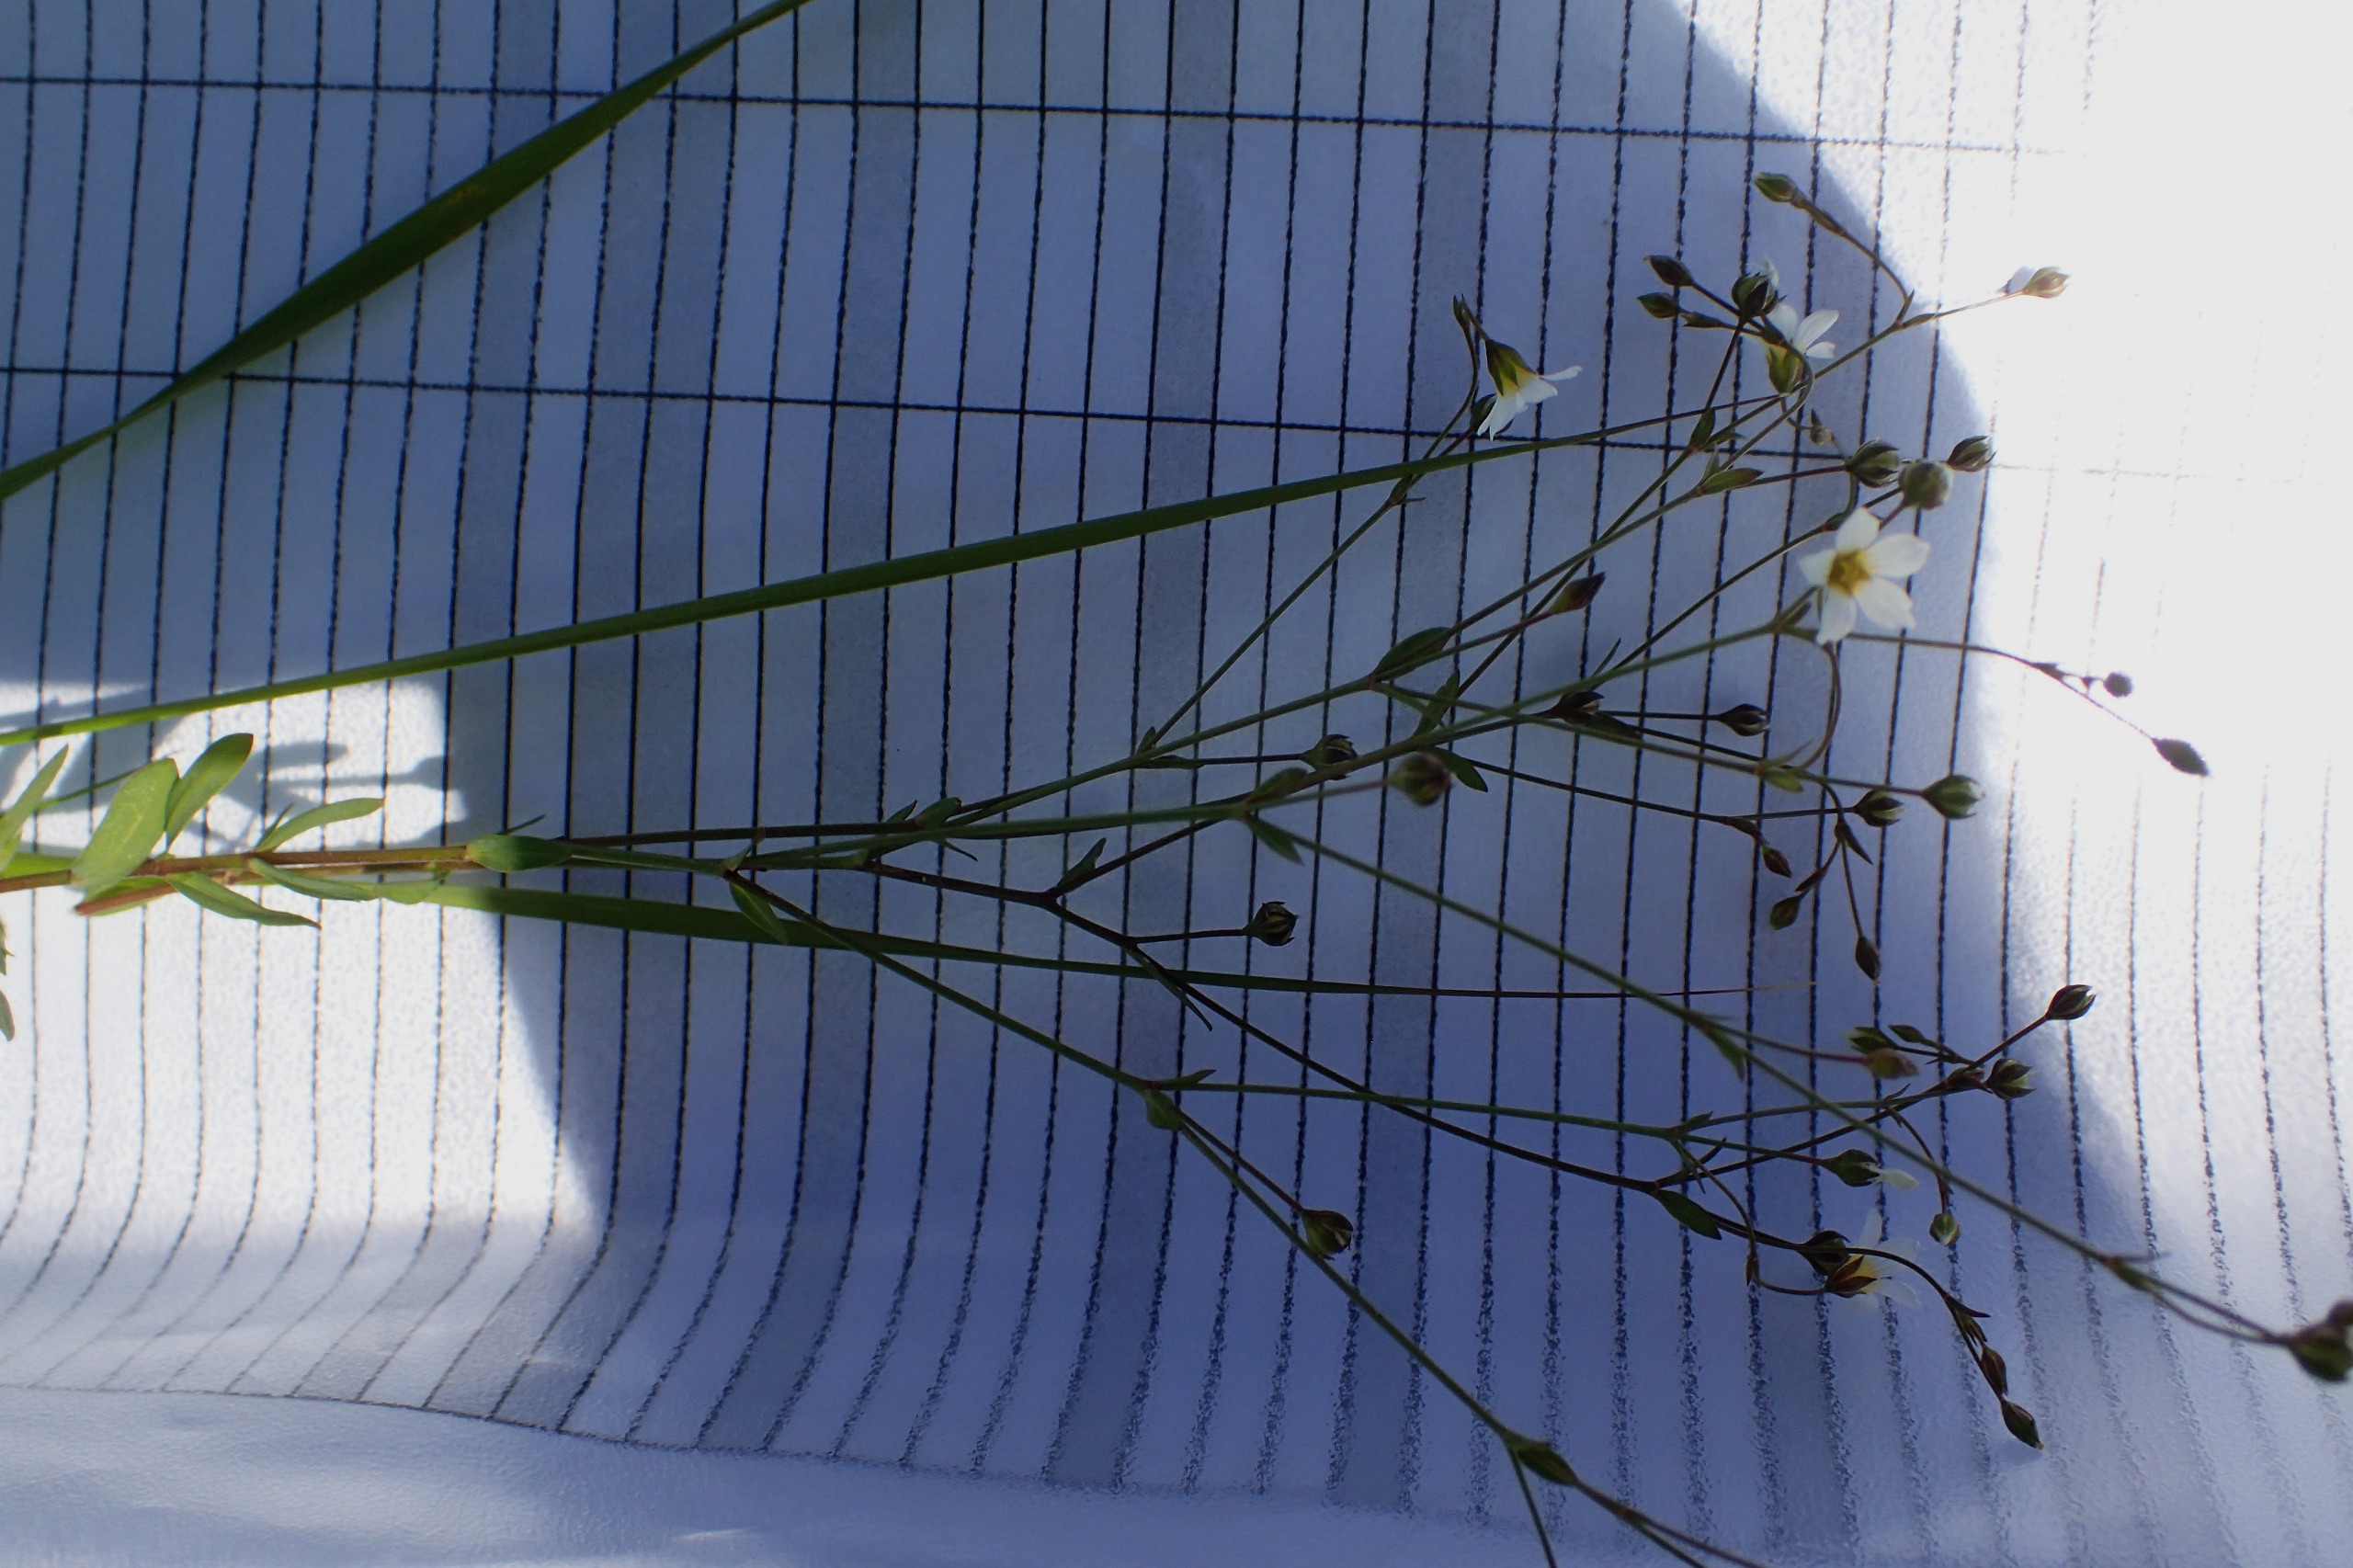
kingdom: Plantae
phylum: Tracheophyta
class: Magnoliopsida
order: Malpighiales
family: Linaceae
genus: Linum
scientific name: Linum catharticum
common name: Vild hør
